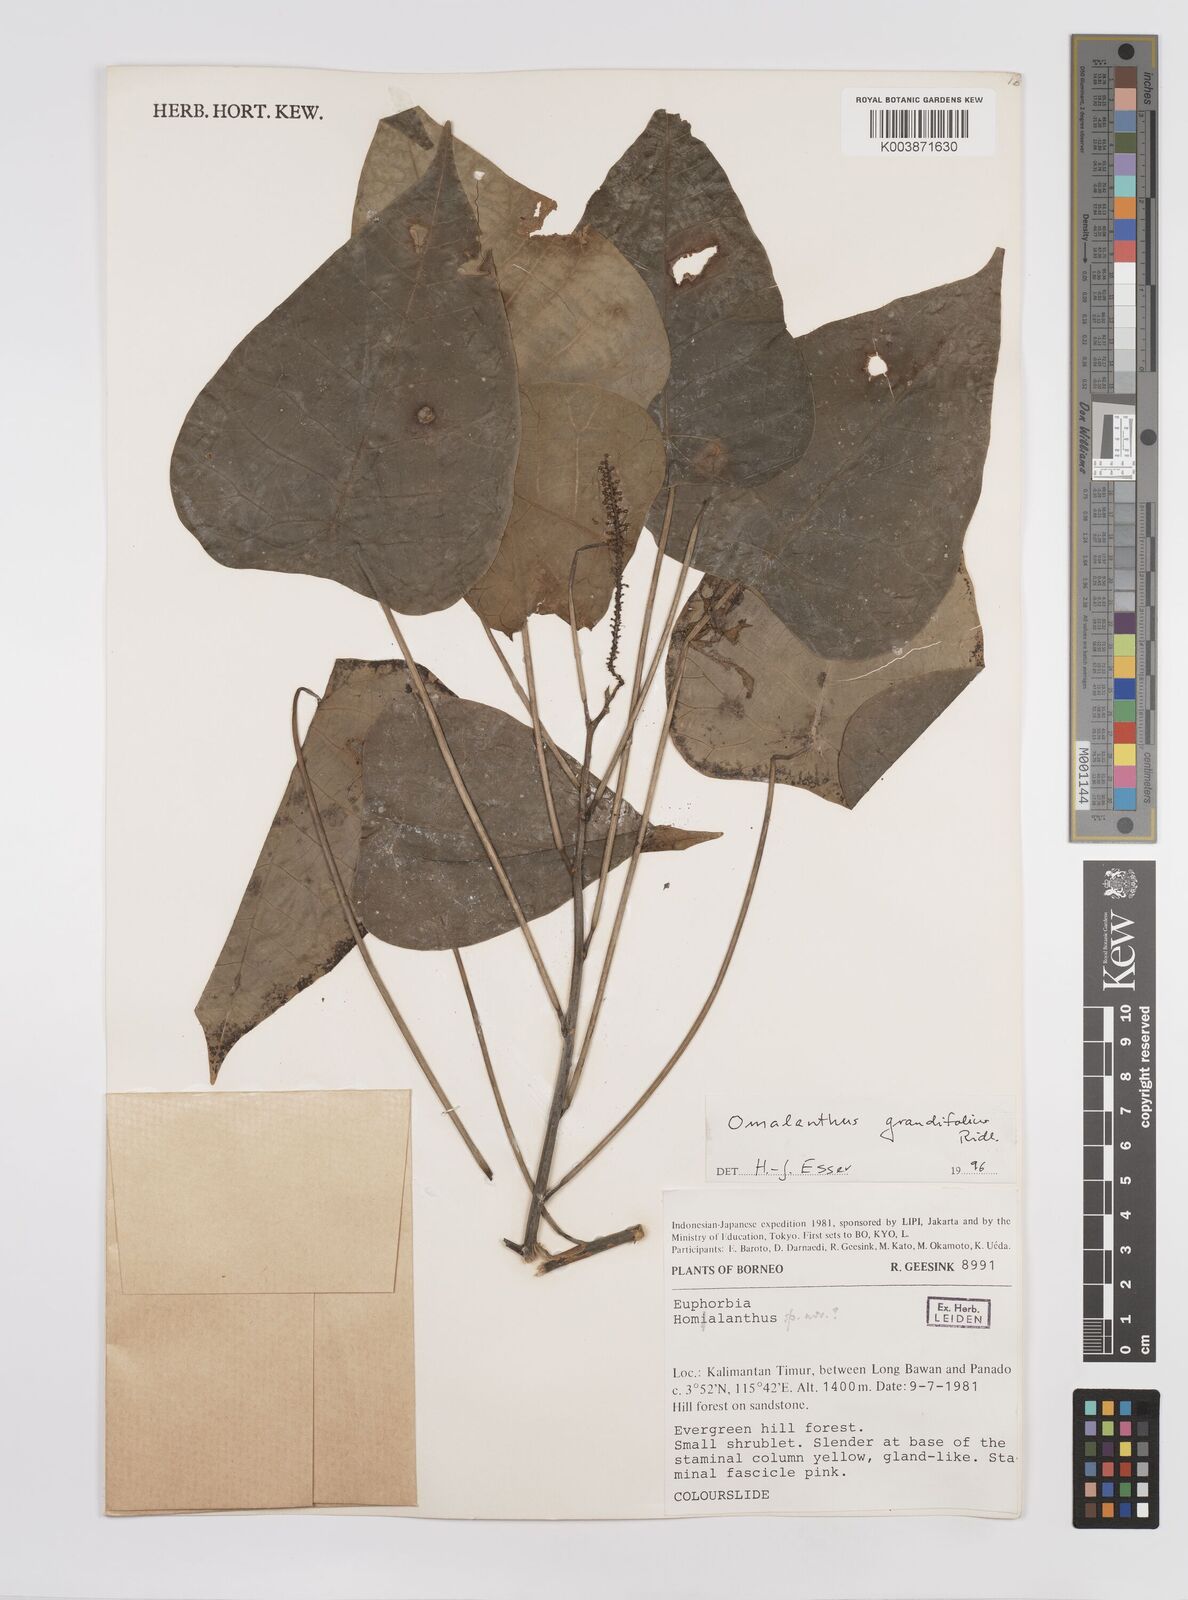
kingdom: Plantae
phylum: Tracheophyta
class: Magnoliopsida
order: Malpighiales
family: Euphorbiaceae
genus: Homalanthus
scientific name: Homalanthus grandifolius
